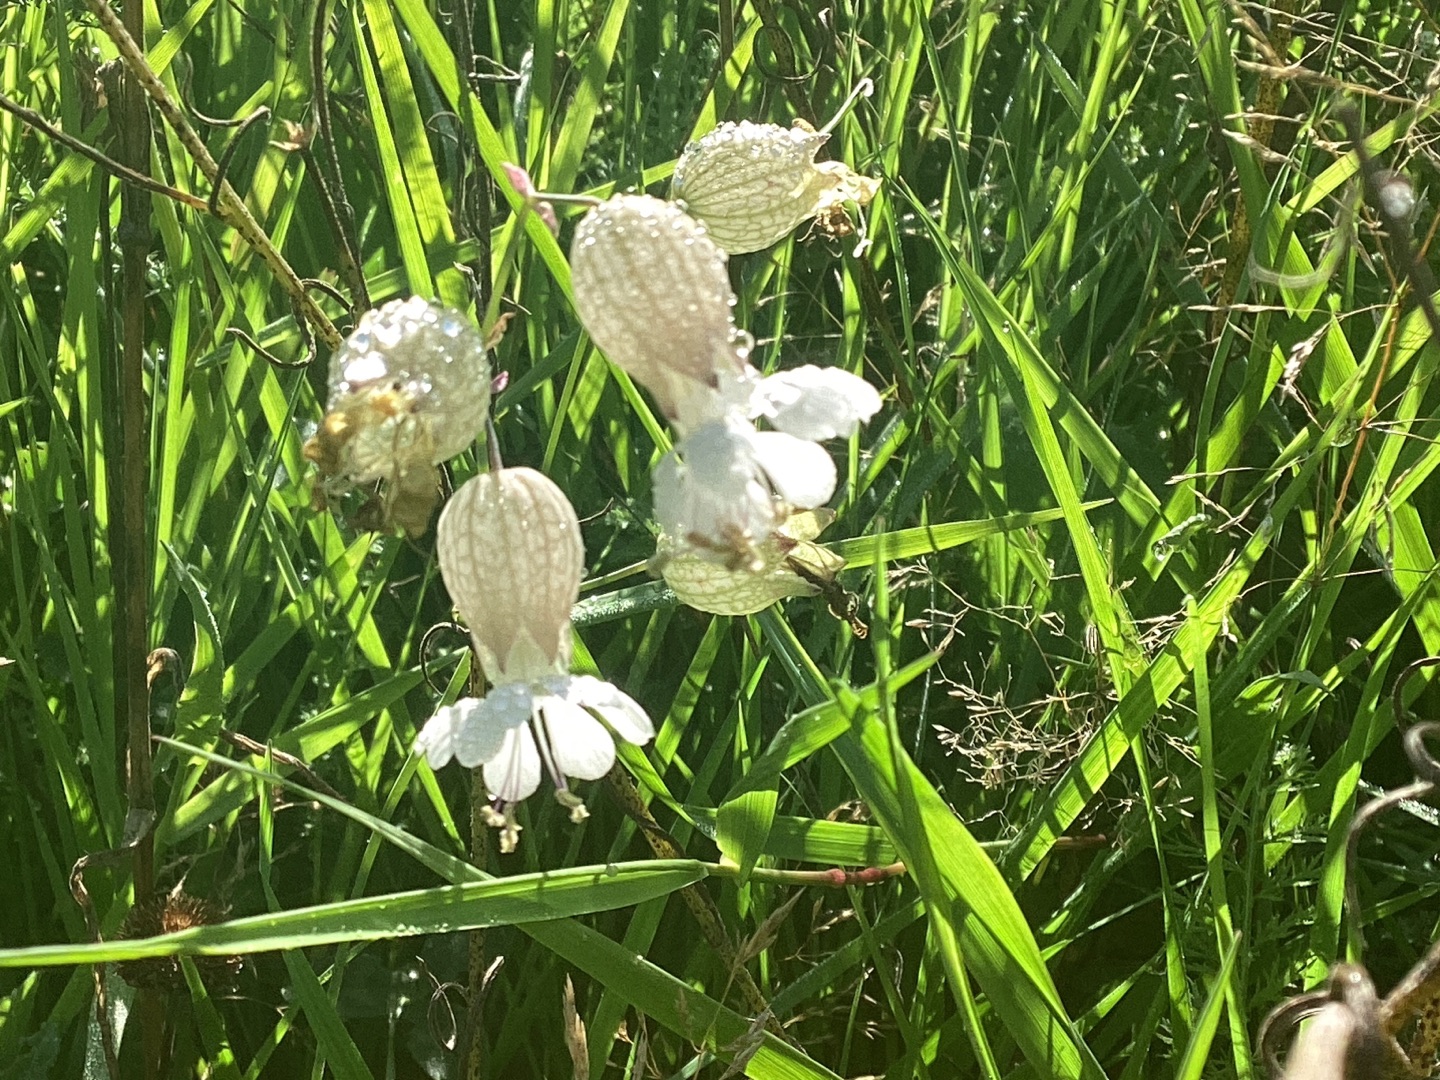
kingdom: Plantae
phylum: Tracheophyta
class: Magnoliopsida
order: Caryophyllales
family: Caryophyllaceae
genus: Silene
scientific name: Silene vulgaris
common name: Blæresmælde
